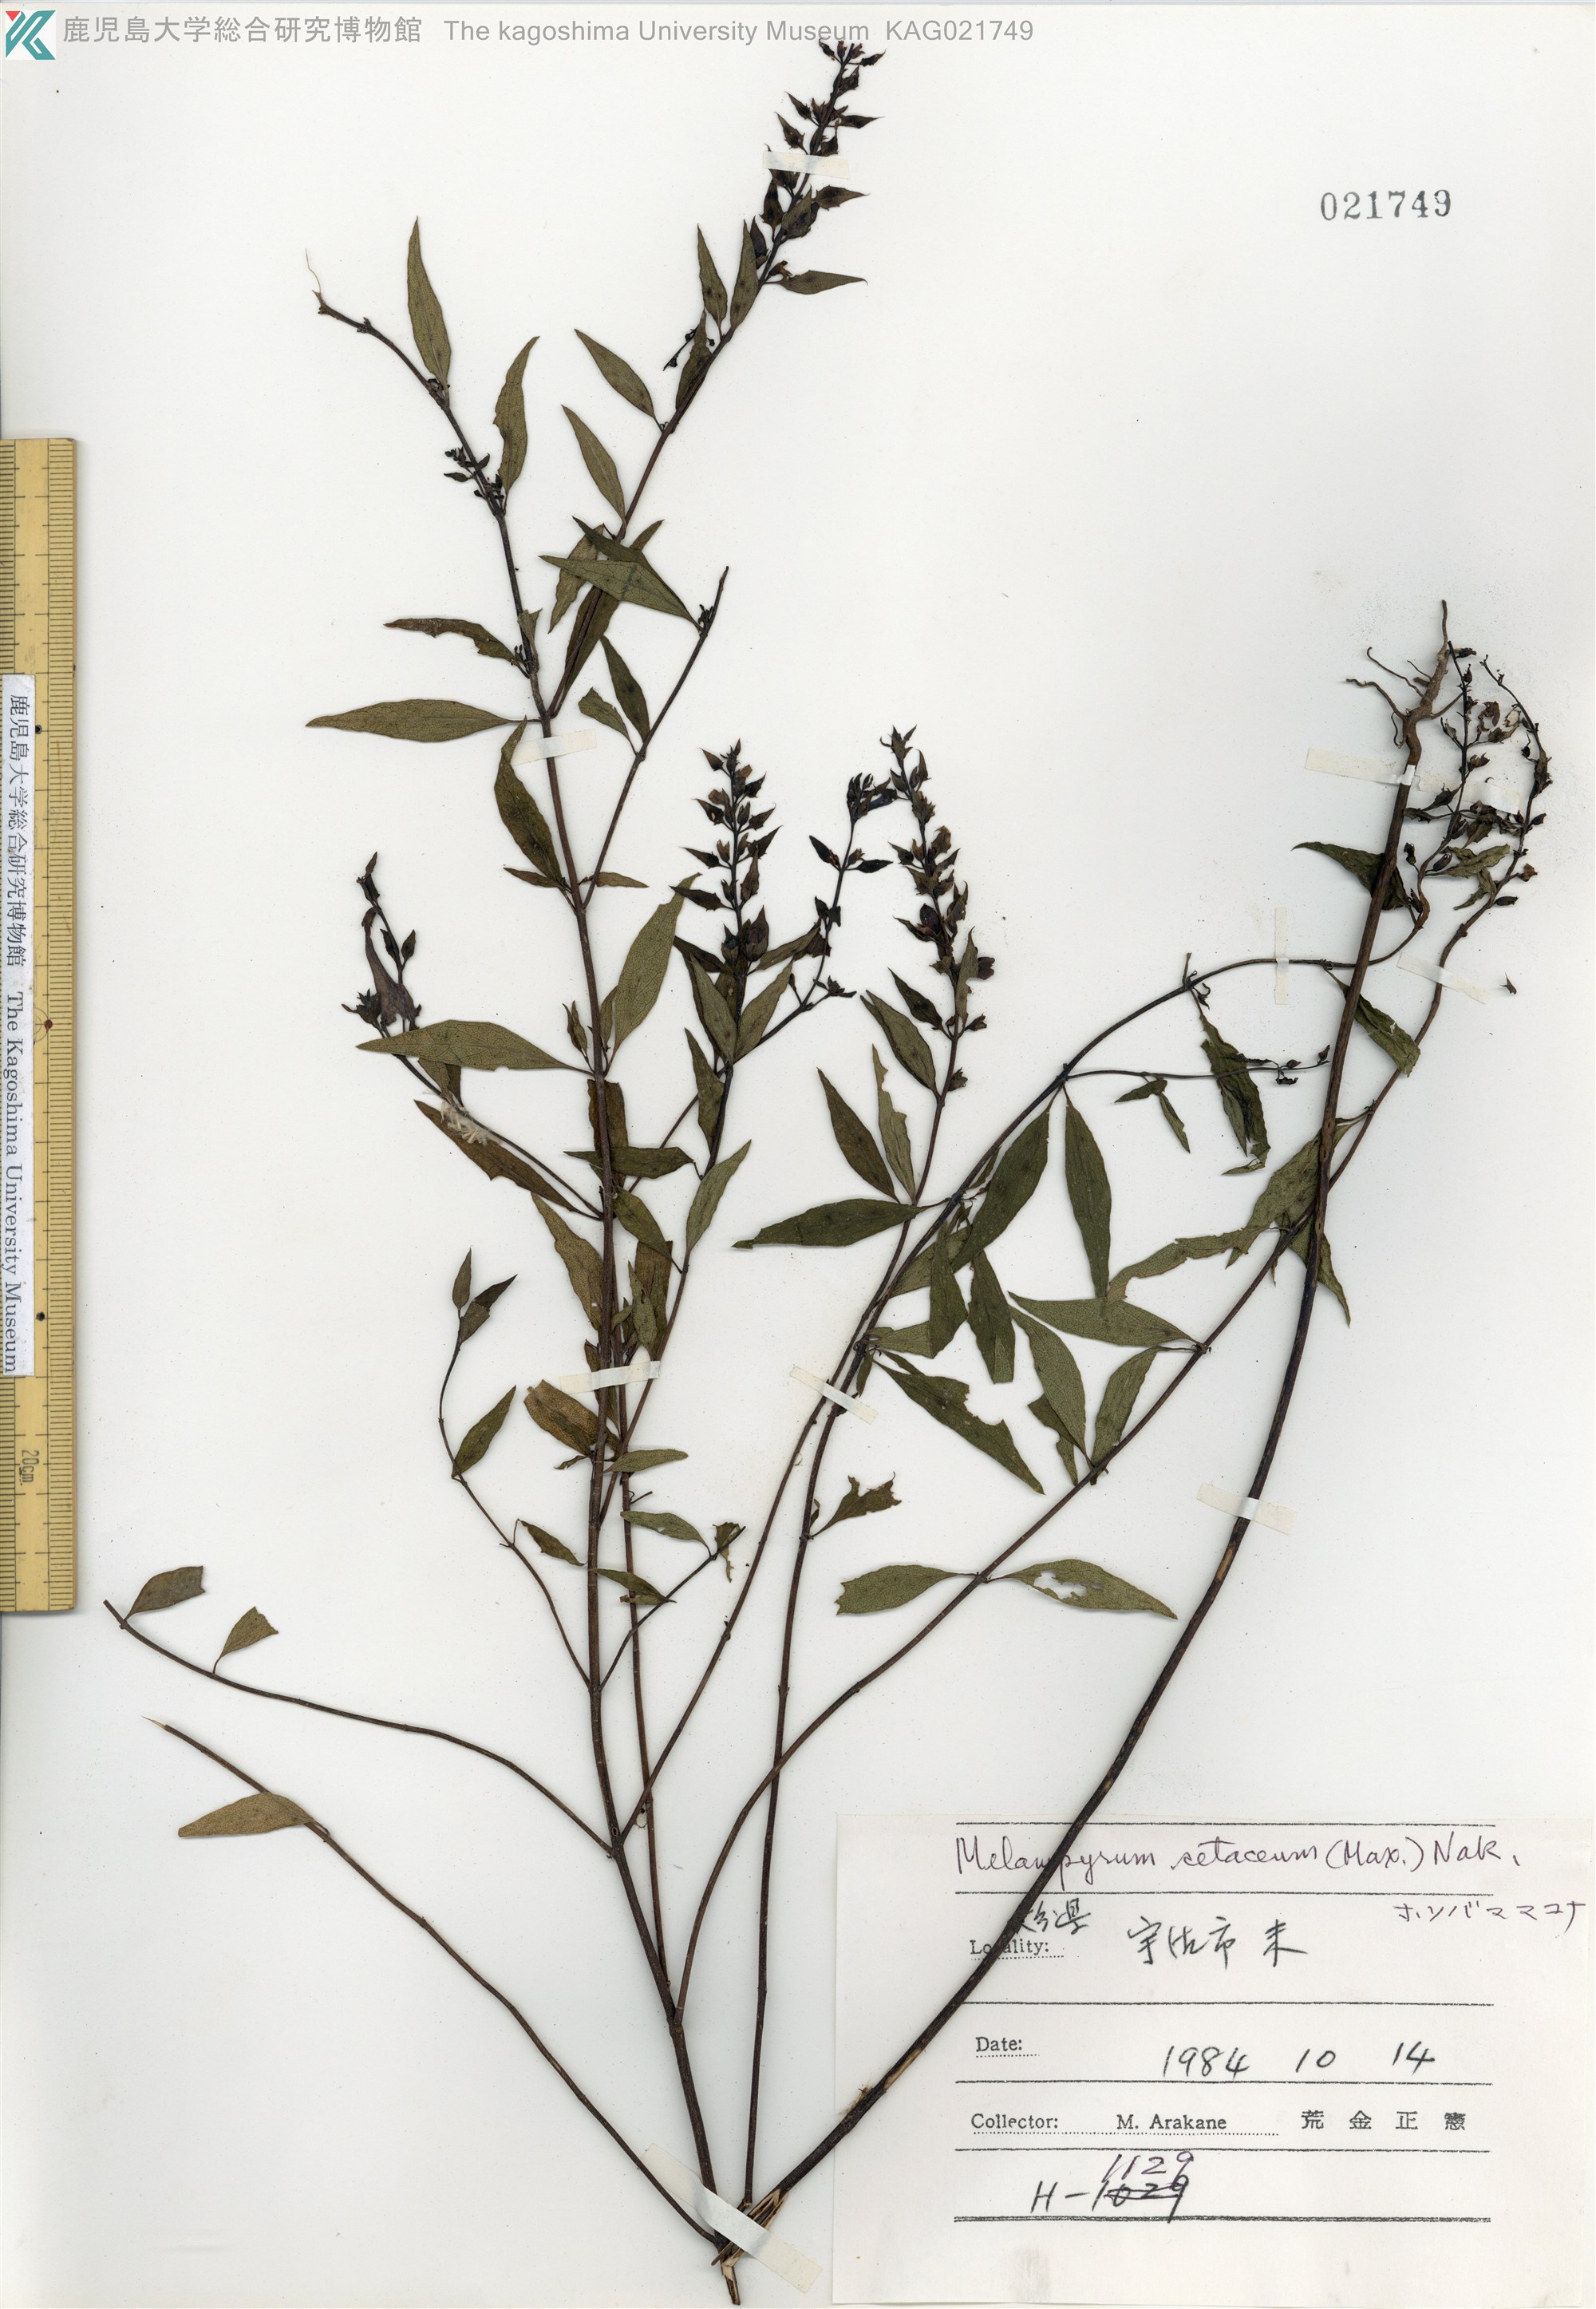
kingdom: Plantae
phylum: Tracheophyta
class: Magnoliopsida
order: Lamiales
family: Orobanchaceae
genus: Melampyrum
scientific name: Melampyrum setaceum
